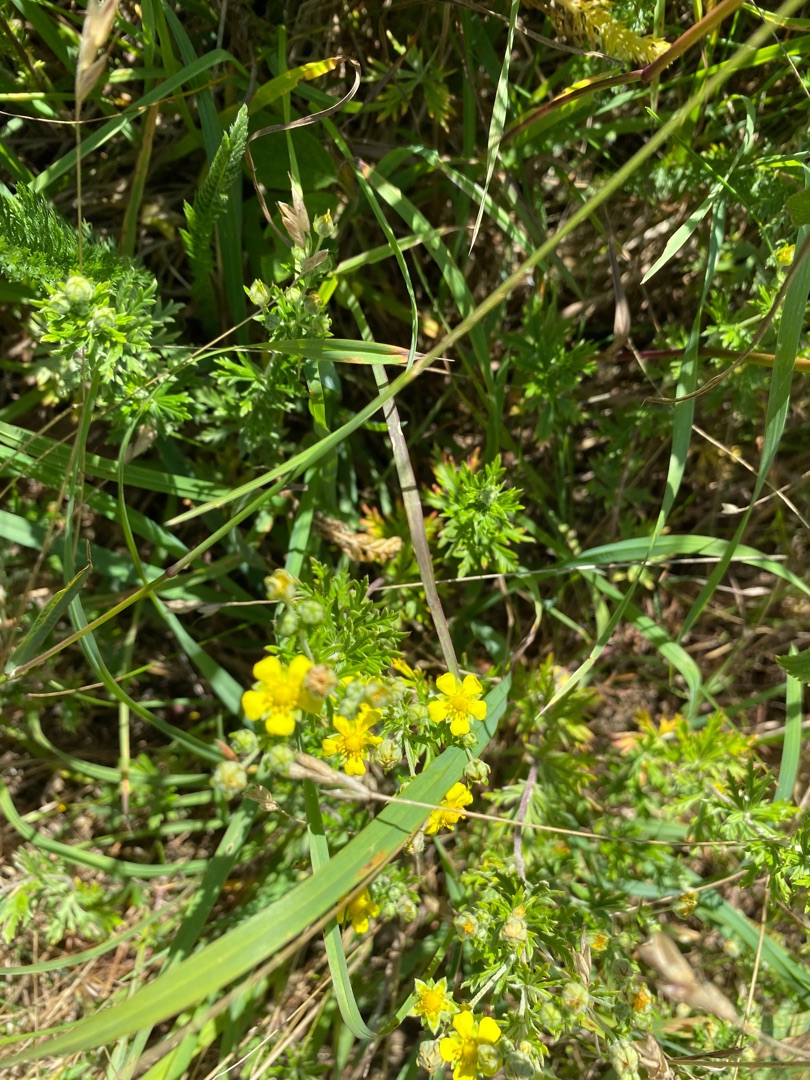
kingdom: Plantae
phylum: Tracheophyta
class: Magnoliopsida
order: Rosales
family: Rosaceae
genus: Potentilla
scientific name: Potentilla argentea
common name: Sølv-potentil
